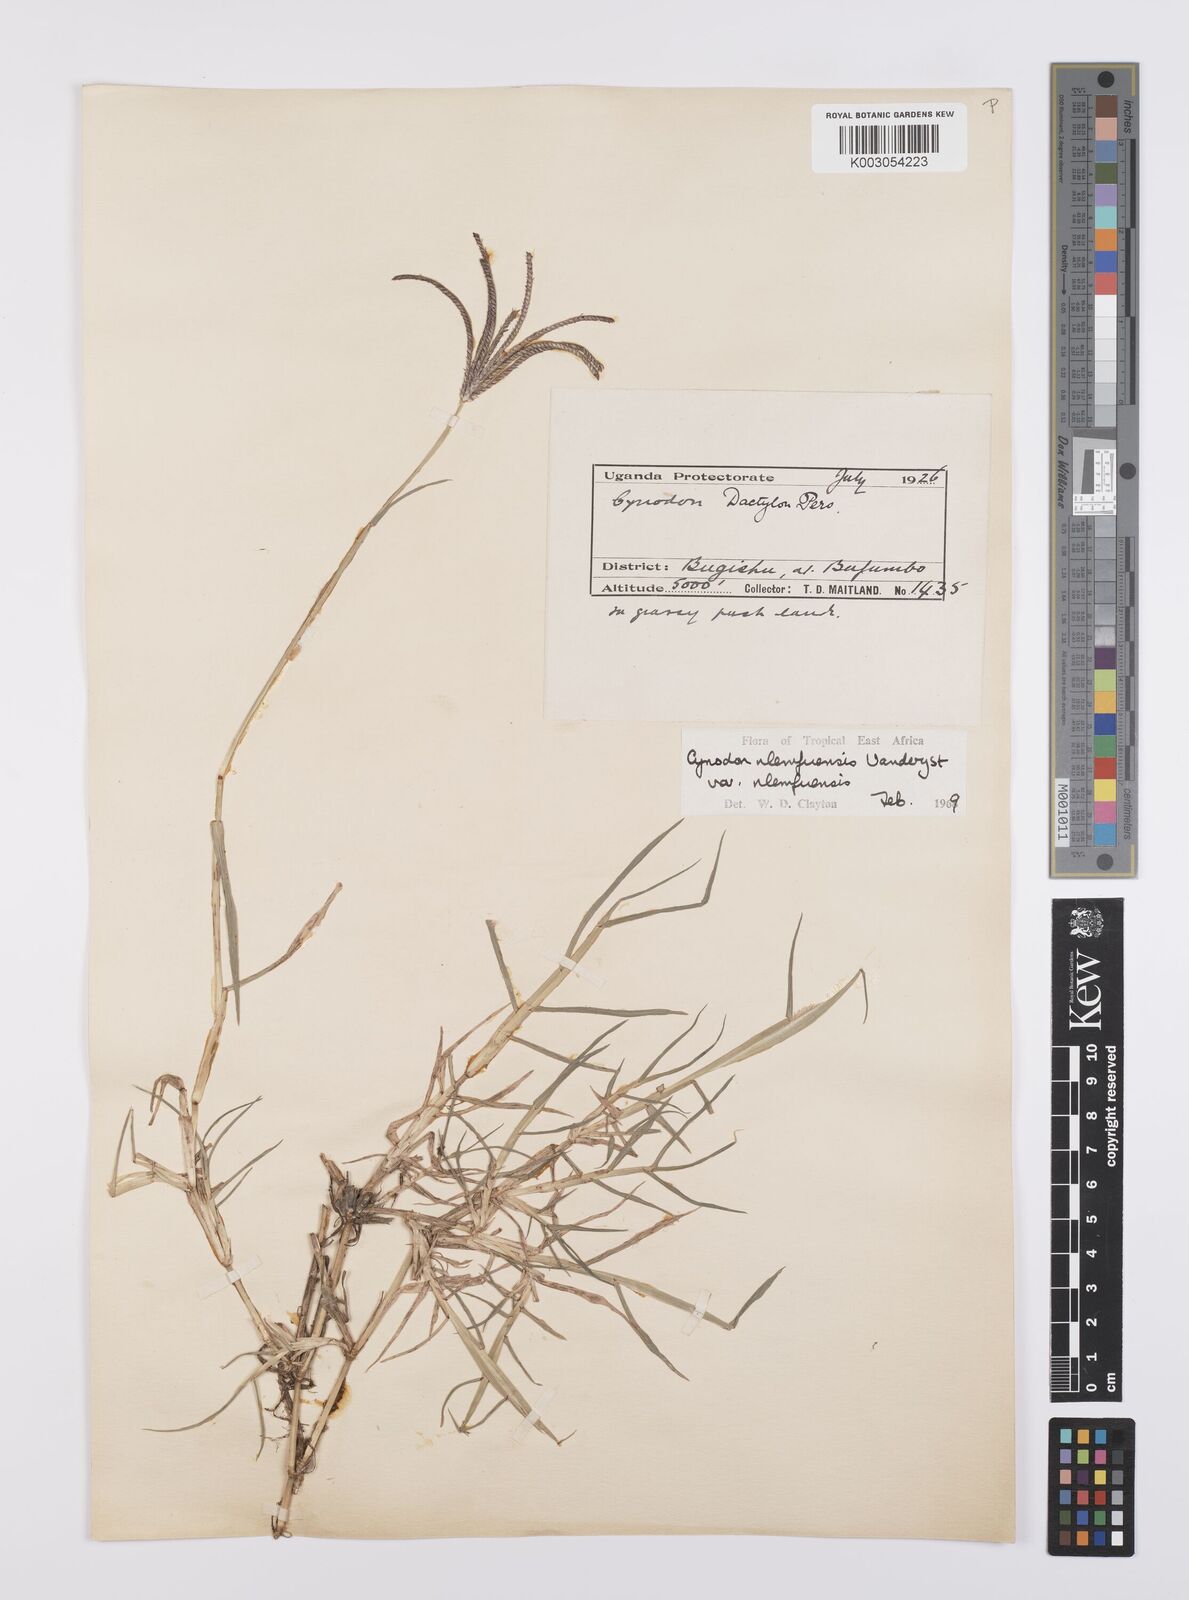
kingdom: Plantae
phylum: Tracheophyta
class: Liliopsida
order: Poales
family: Poaceae
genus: Cynodon
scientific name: Cynodon nlemfuensis
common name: African bermudagrass
